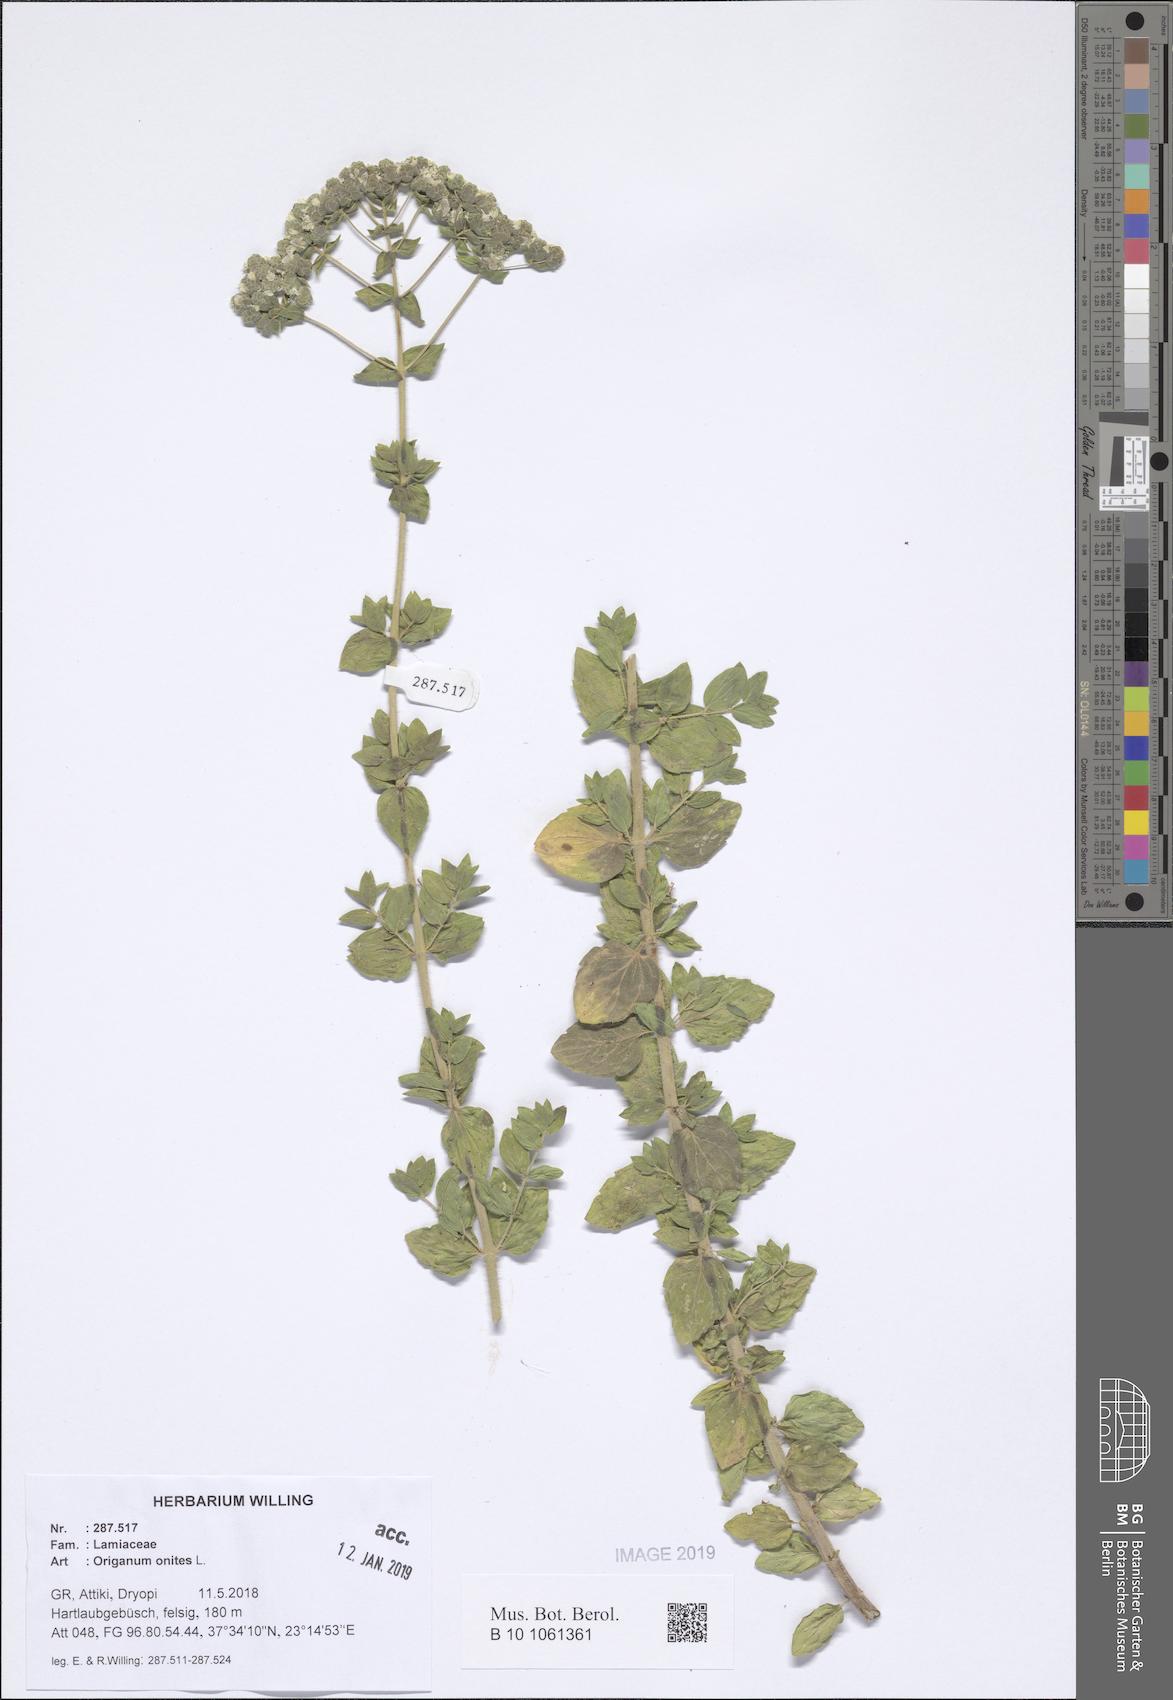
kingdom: Plantae
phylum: Tracheophyta
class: Magnoliopsida
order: Lamiales
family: Lamiaceae
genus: Origanum
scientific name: Origanum onites
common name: Turkish oregano
